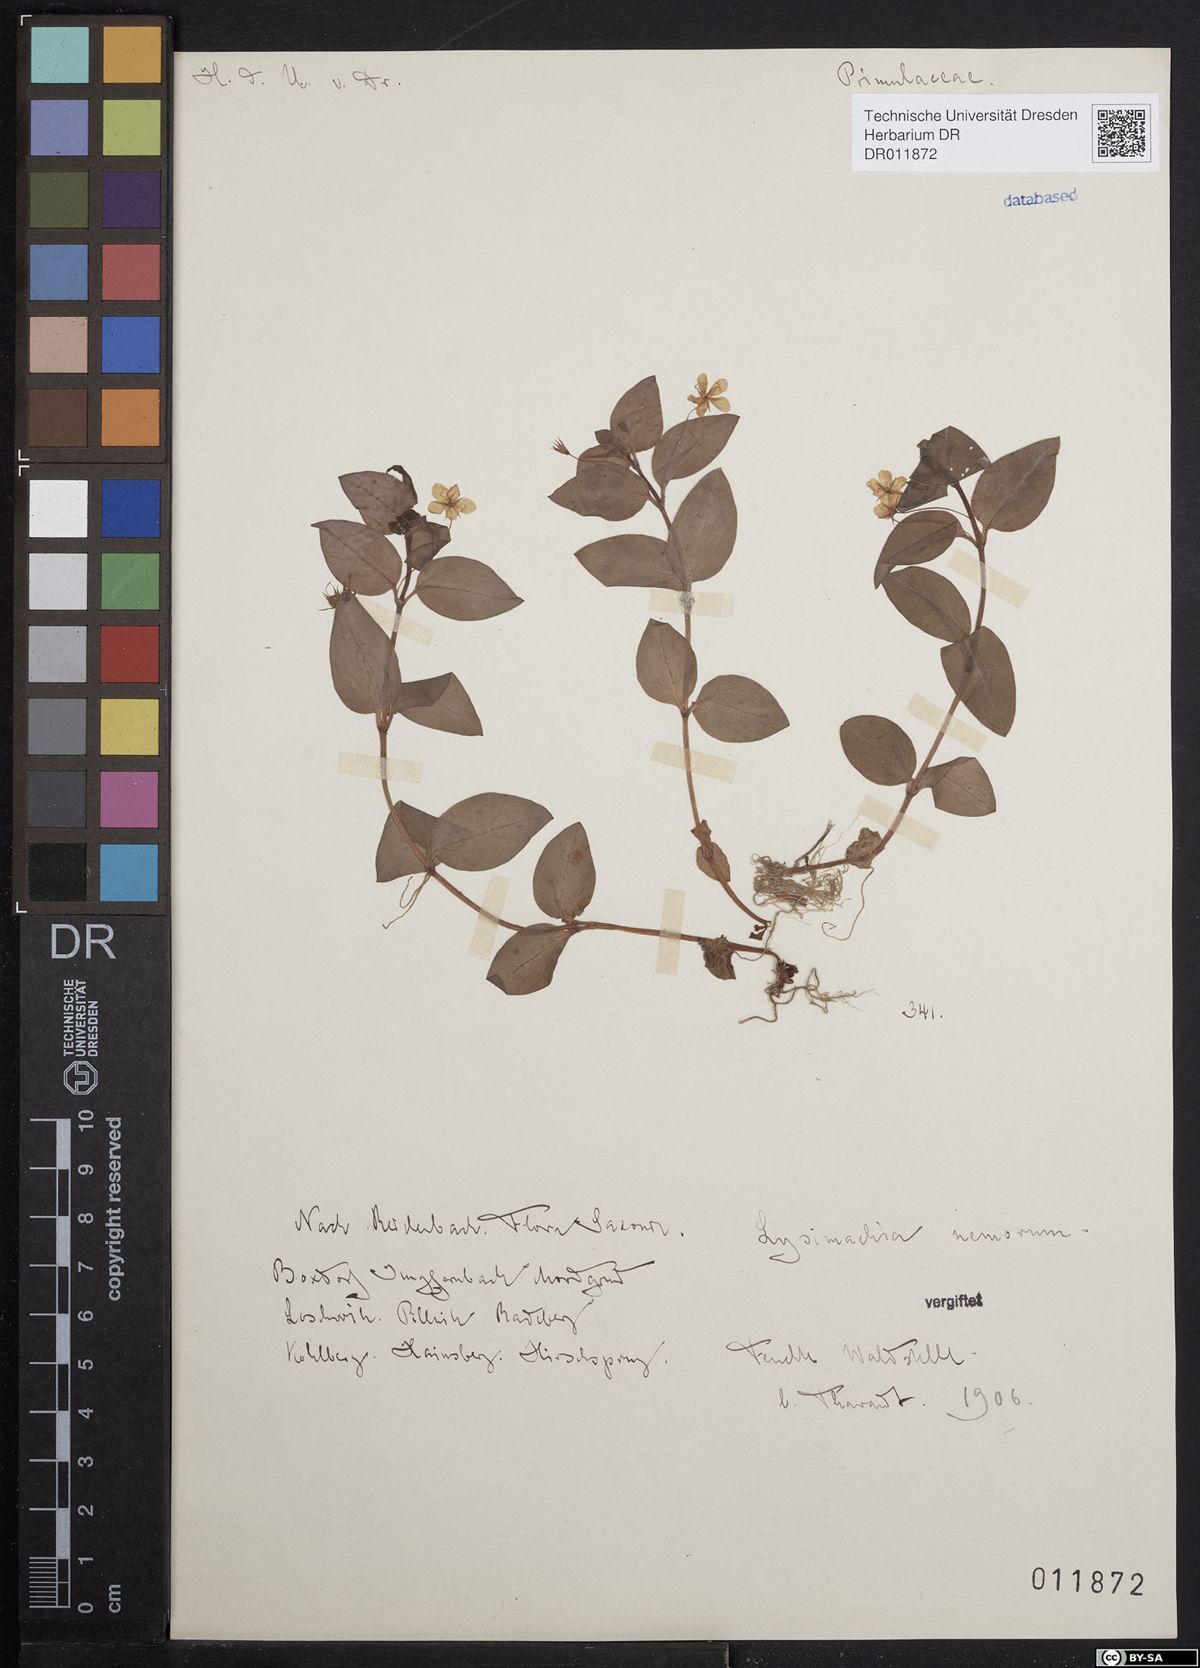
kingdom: Plantae
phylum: Tracheophyta
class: Magnoliopsida
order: Ericales
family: Primulaceae
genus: Lysimachia
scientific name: Lysimachia nemorum
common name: Yellow pimpernel
